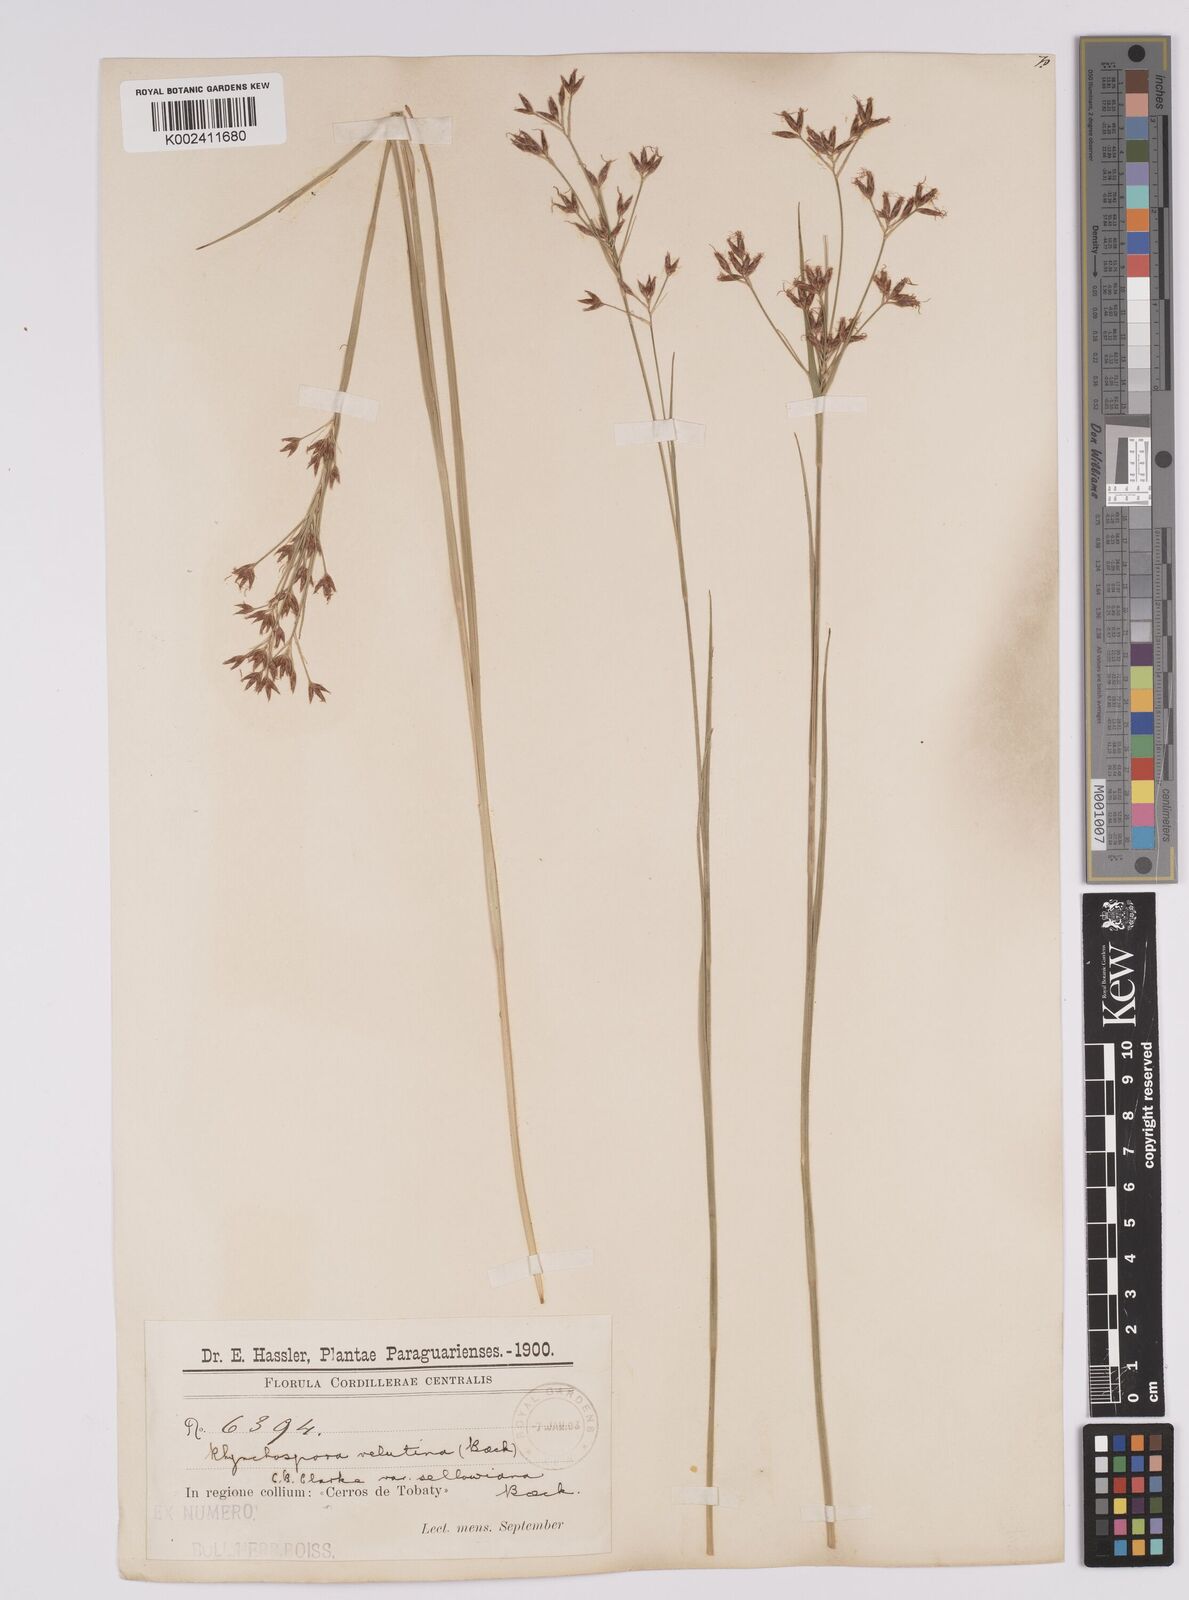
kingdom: Plantae
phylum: Tracheophyta
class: Liliopsida
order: Poales
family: Cyperaceae
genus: Rhynchospora
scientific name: Rhynchospora velutina
